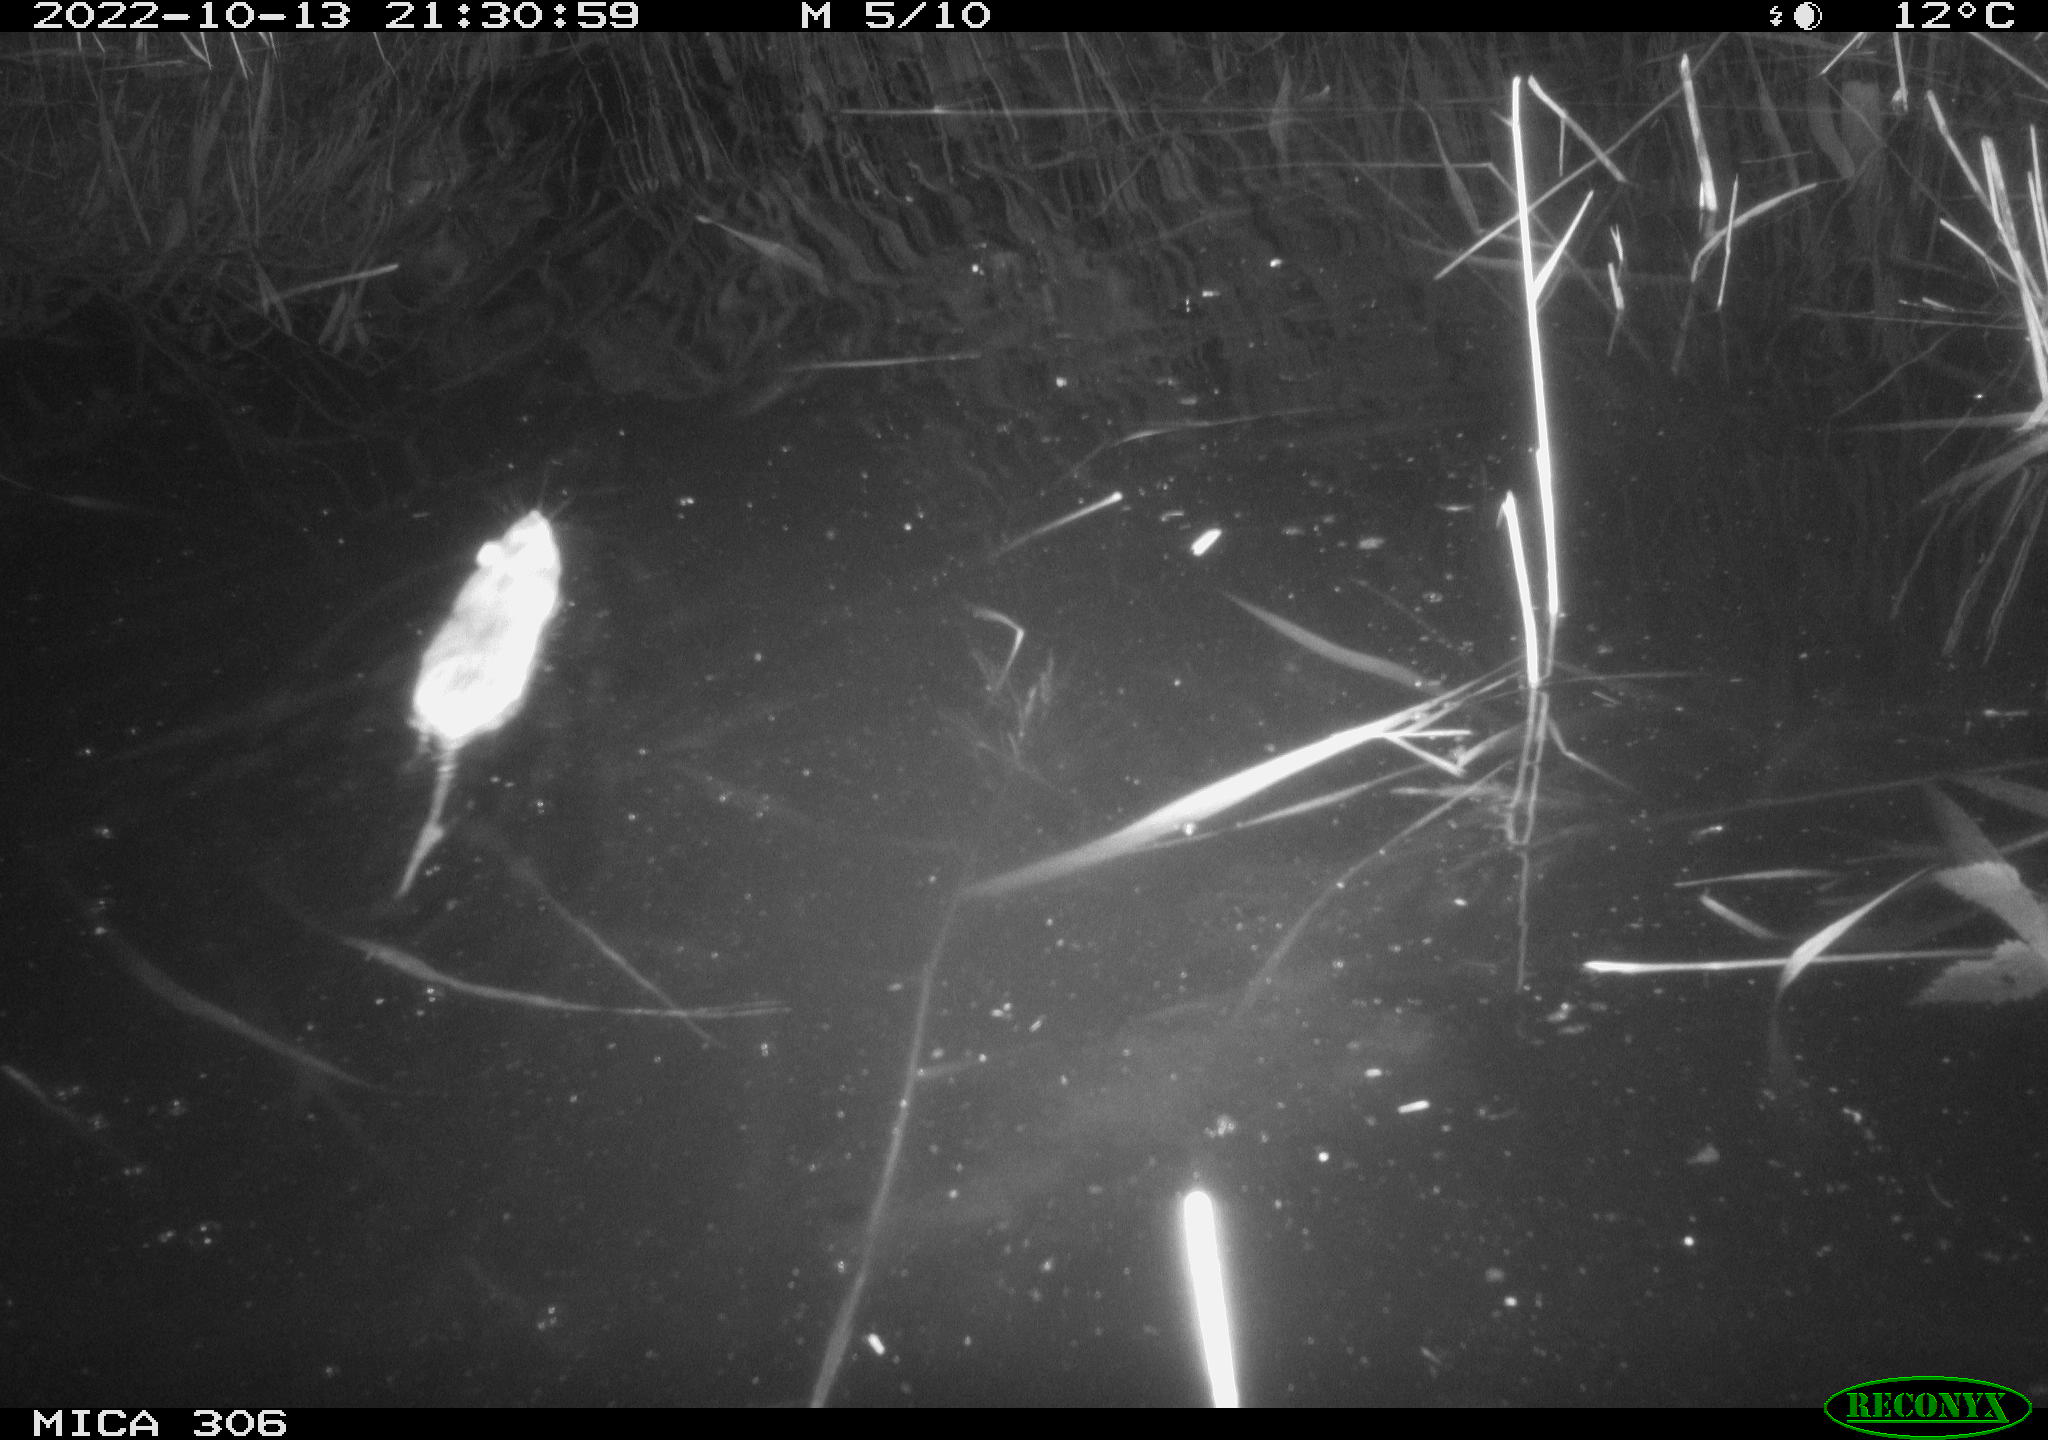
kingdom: Animalia
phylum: Chordata
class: Mammalia
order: Rodentia
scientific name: Rodentia
